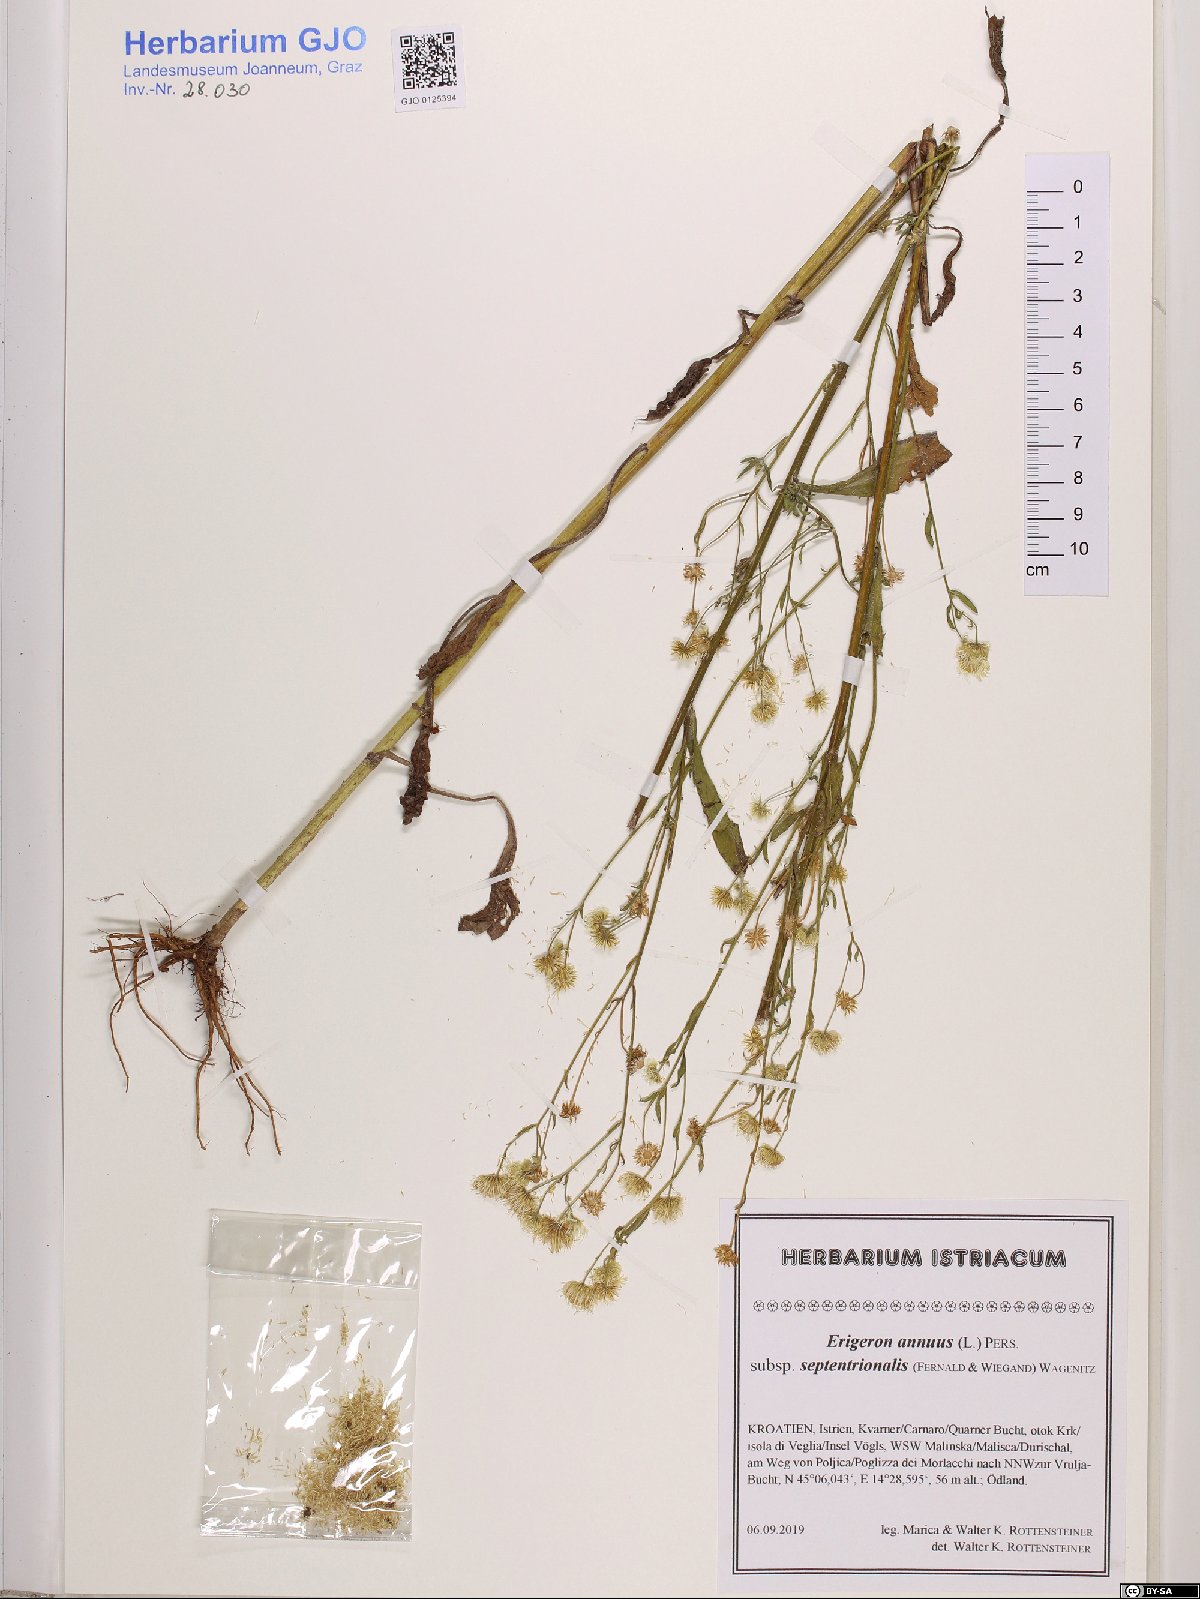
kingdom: Plantae
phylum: Tracheophyta
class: Magnoliopsida
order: Asterales
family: Asteraceae
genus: Erigeron
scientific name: Erigeron annuus
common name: Tall fleabane
